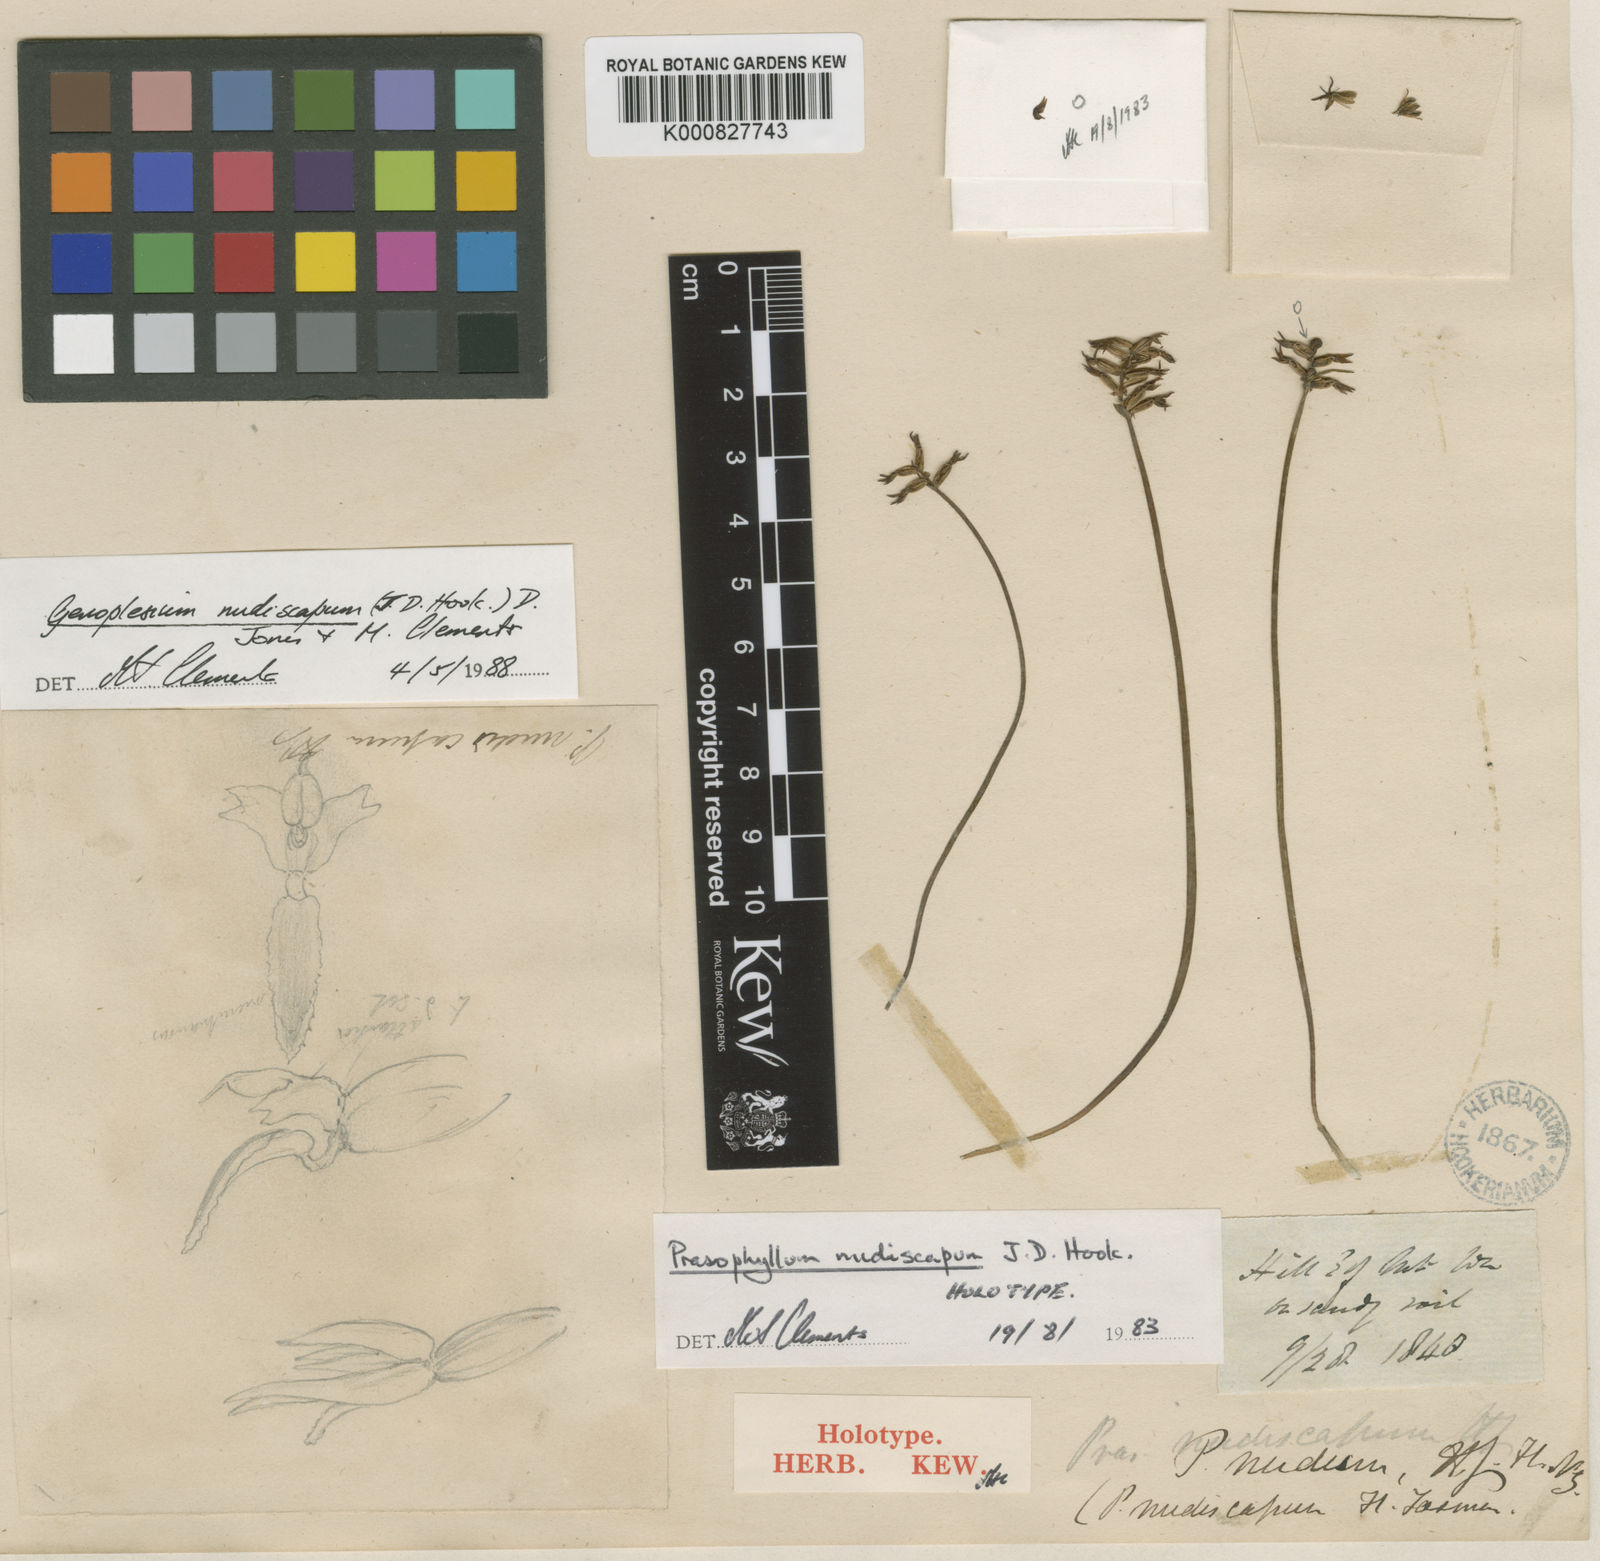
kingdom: Plantae
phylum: Tracheophyta
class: Liliopsida
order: Asparagales
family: Orchidaceae
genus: Genoplesium
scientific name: Genoplesium nudiscapum
